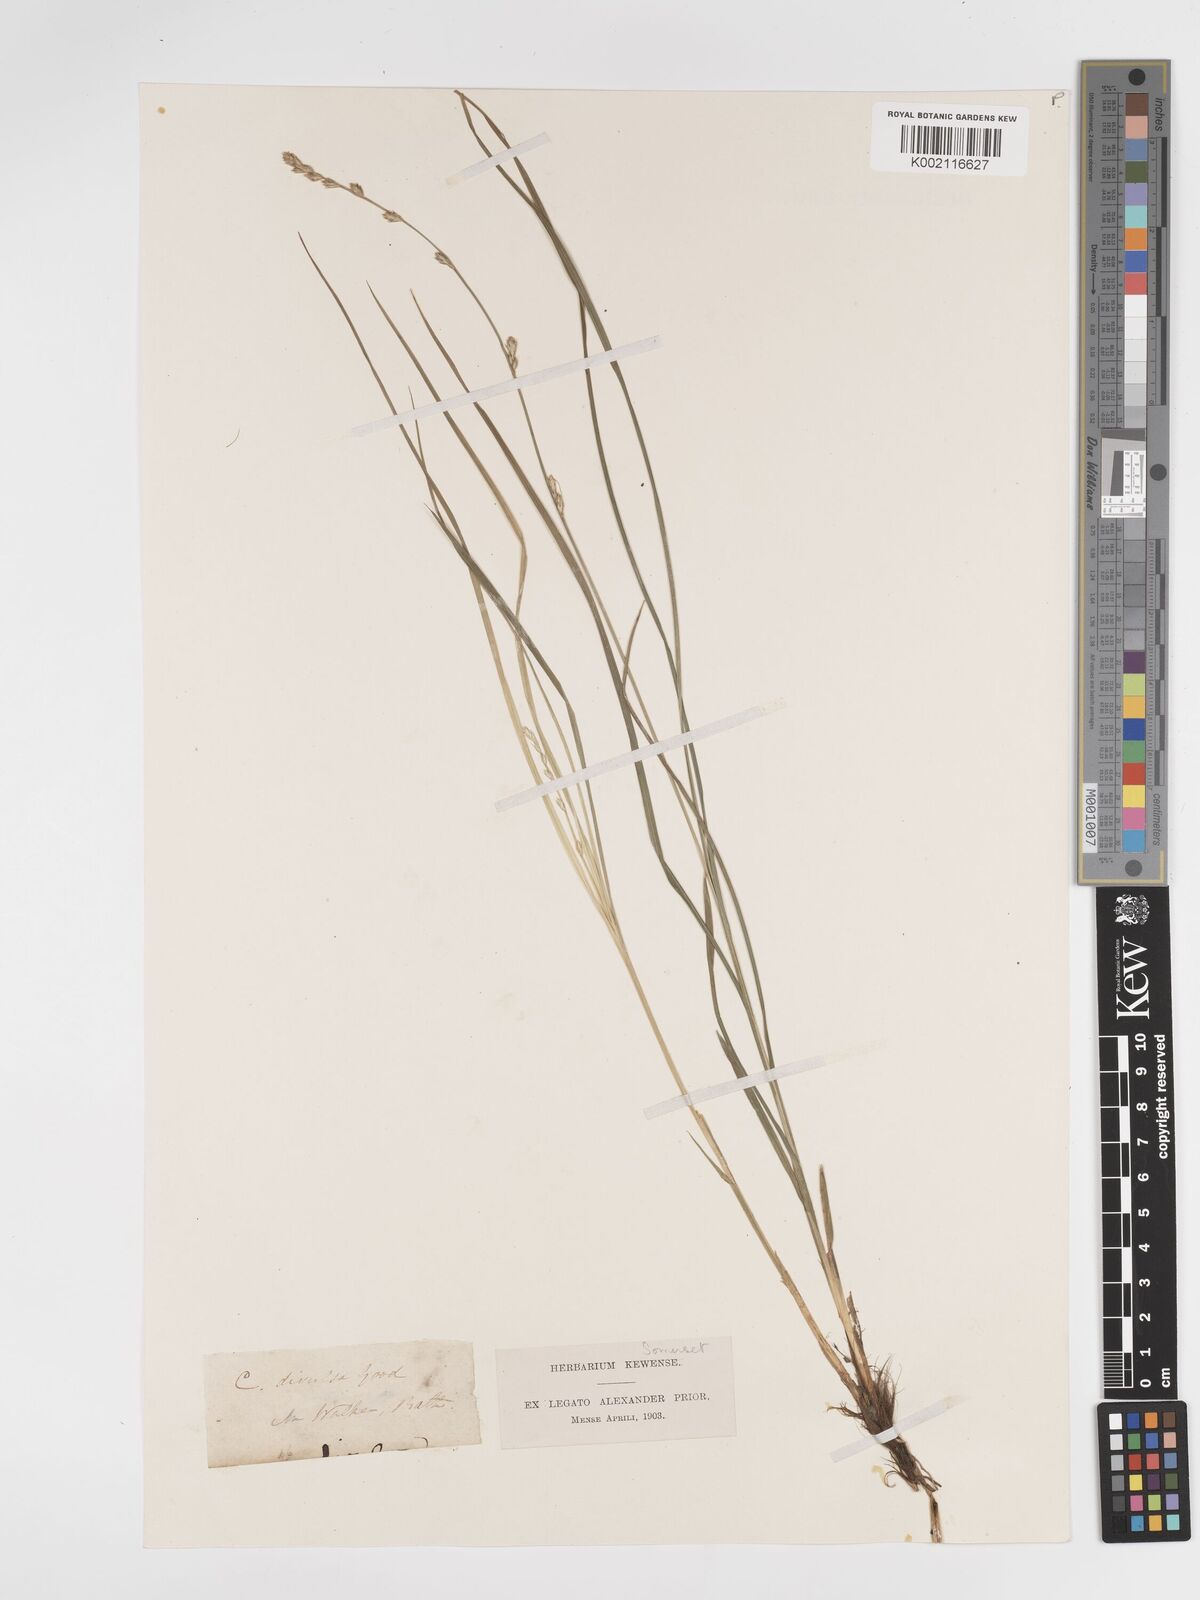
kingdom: Plantae
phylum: Tracheophyta
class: Liliopsida
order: Poales
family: Cyperaceae
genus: Carex
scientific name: Carex divulsa
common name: Grassland sedge
